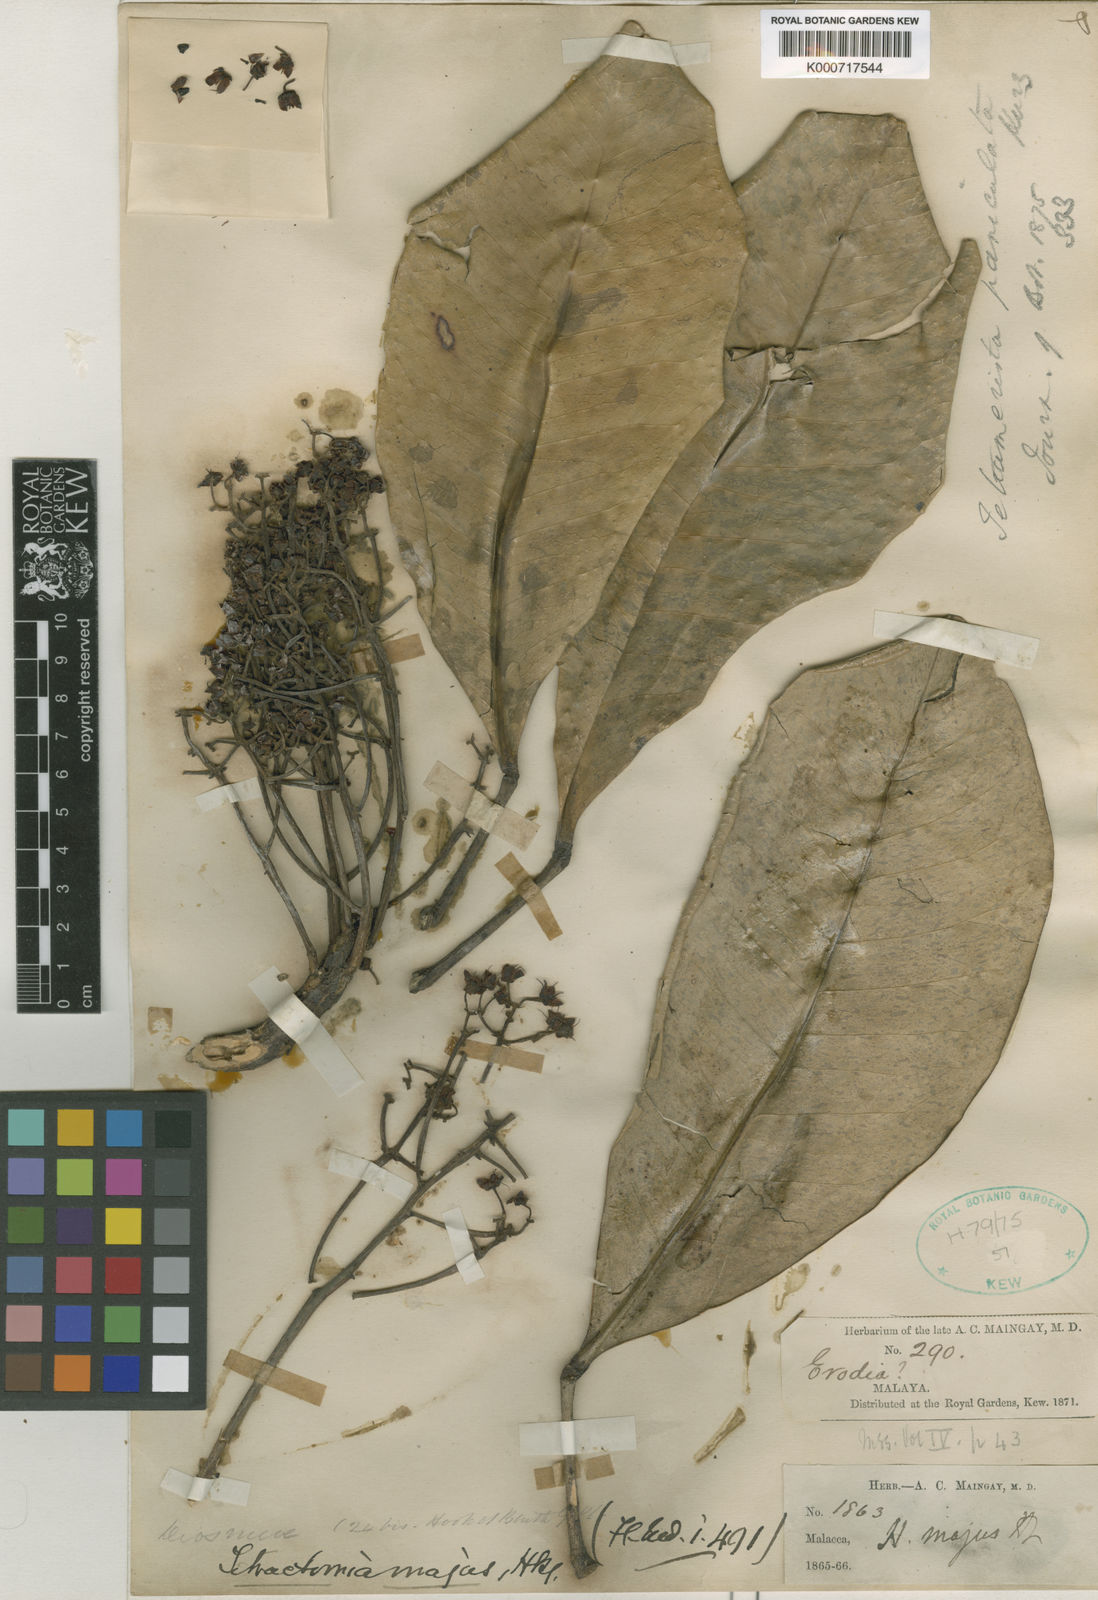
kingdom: Plantae
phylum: Tracheophyta
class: Magnoliopsida
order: Sapindales
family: Rutaceae
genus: Tetractomia
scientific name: Tetractomia majus
